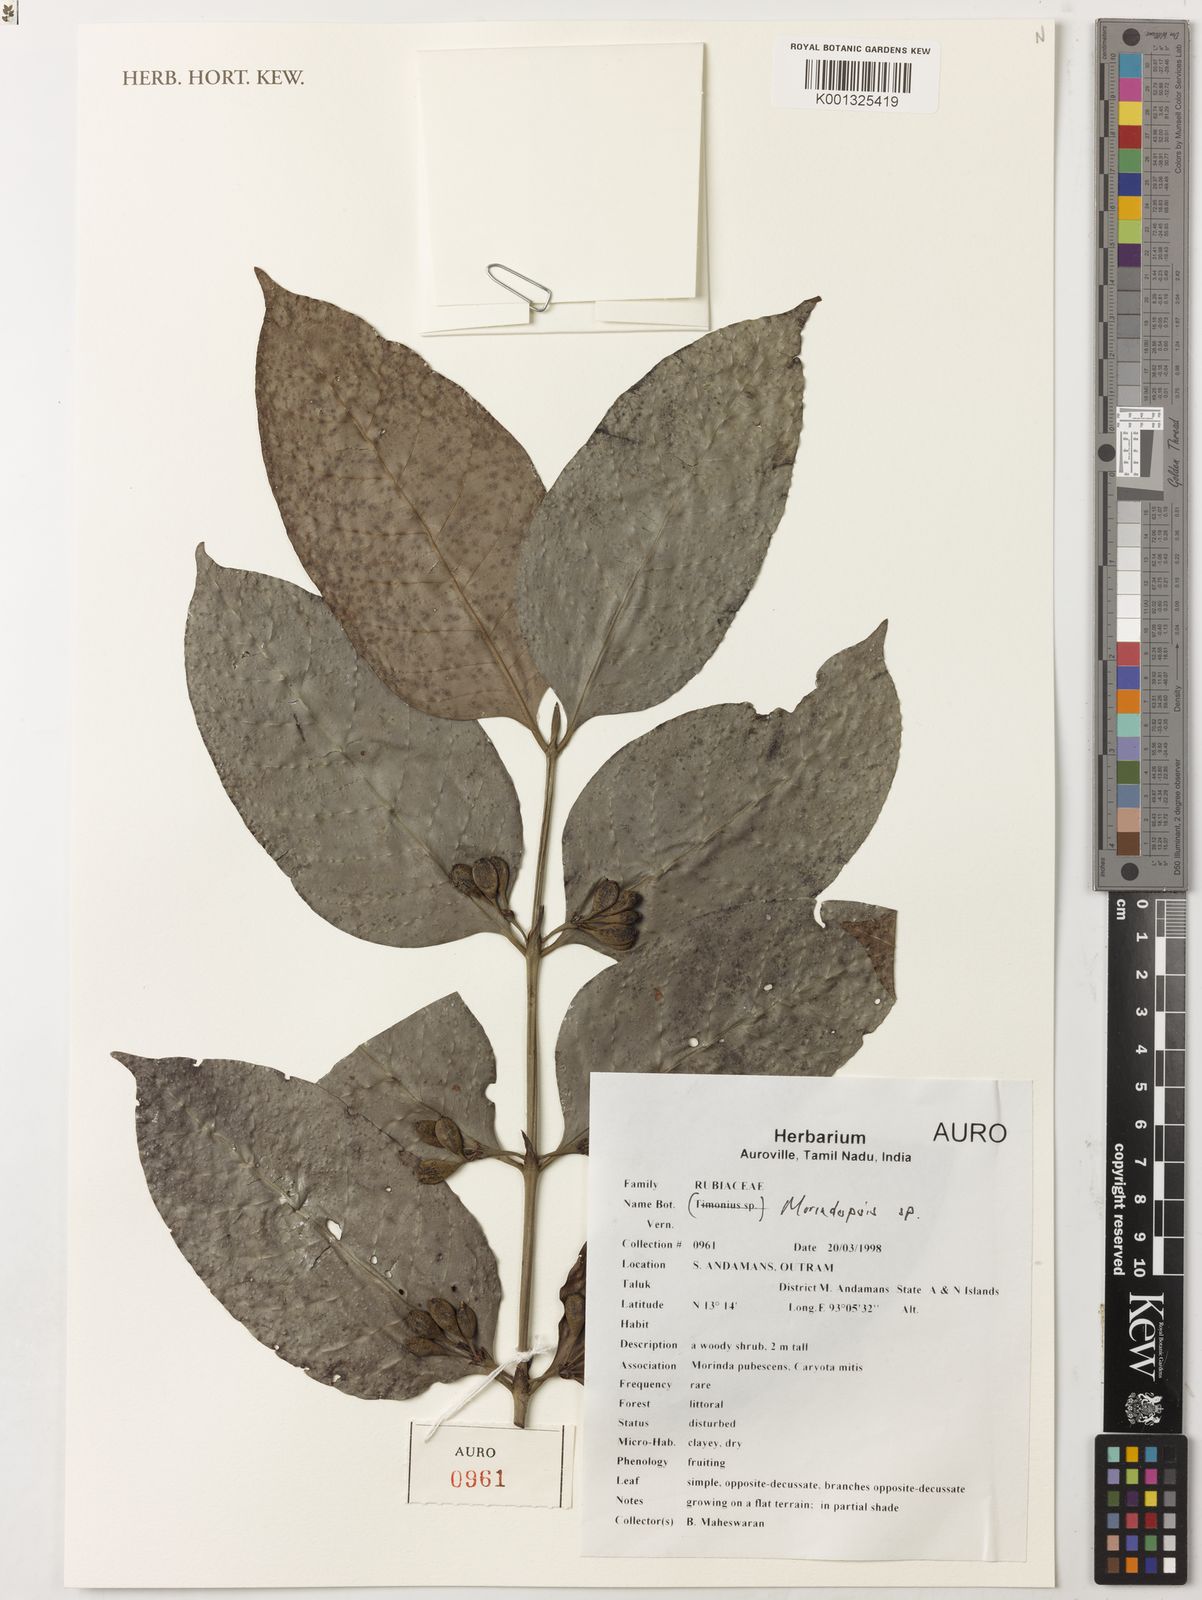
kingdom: Plantae
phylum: Tracheophyta
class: Magnoliopsida
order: Gentianales
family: Rubiaceae
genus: Morindopsis
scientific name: Morindopsis
